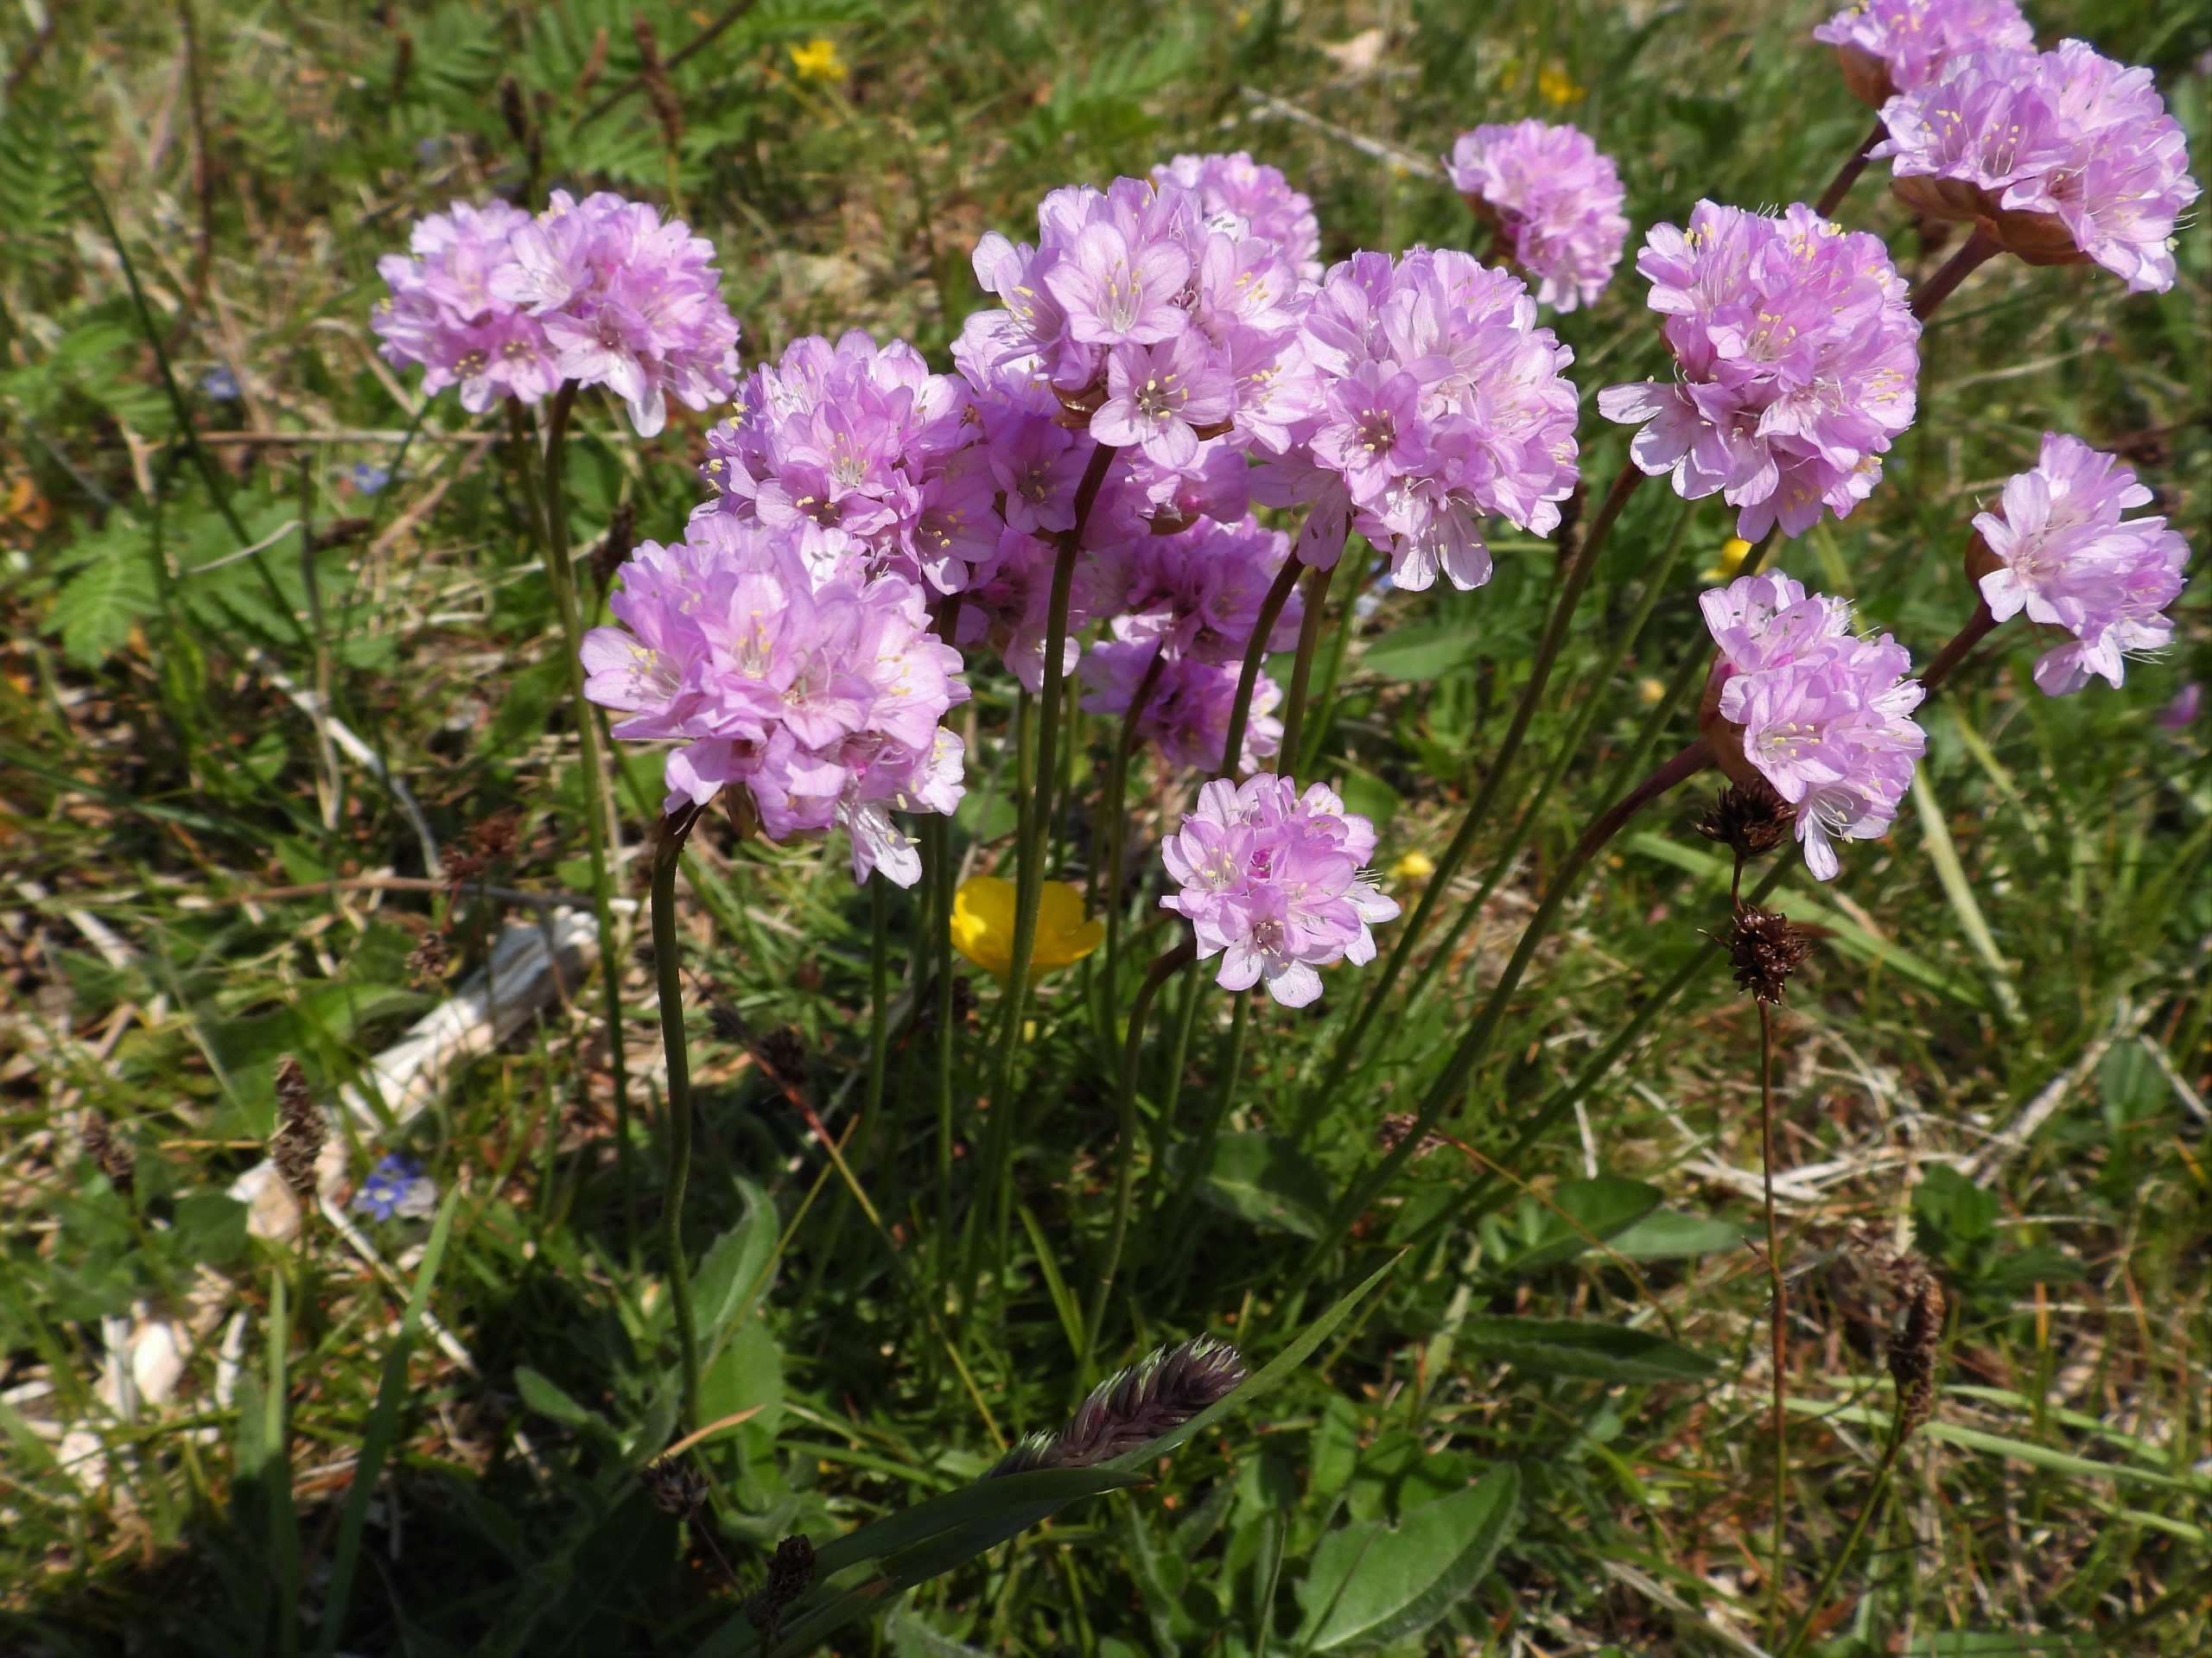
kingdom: Plantae
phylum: Tracheophyta
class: Magnoliopsida
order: Caryophyllales
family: Plumbaginaceae
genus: Armeria
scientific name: Armeria maritima
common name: Engelskgræs
